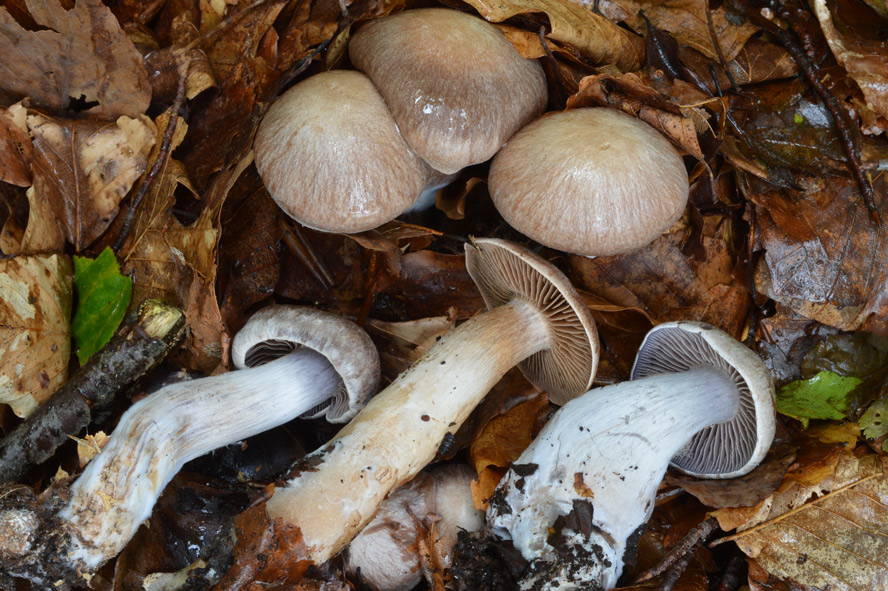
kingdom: Fungi
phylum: Basidiomycota
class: Agaricomycetes
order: Agaricales
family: Cortinariaceae
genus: Cortinarius
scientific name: Cortinarius testaceomicaceus
